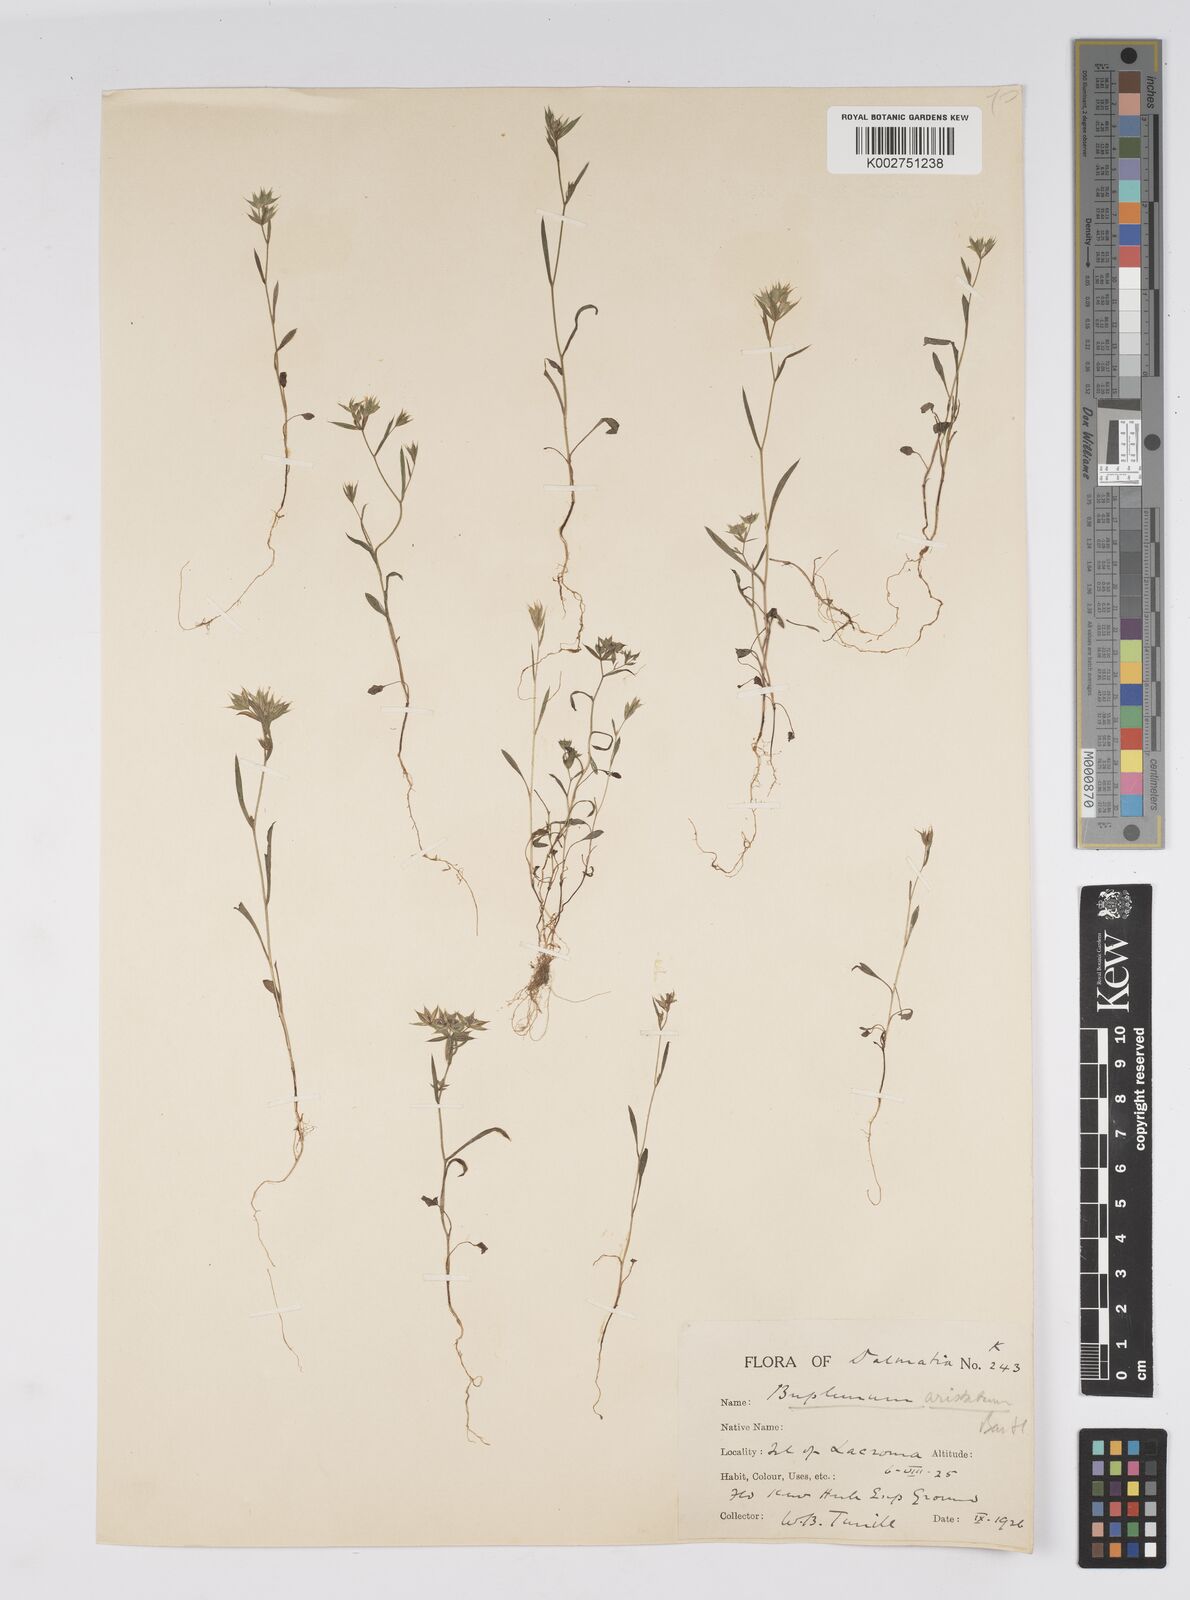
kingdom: Plantae
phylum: Tracheophyta
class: Magnoliopsida
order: Apiales
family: Apiaceae
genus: Bupleurum
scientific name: Bupleurum veronense
